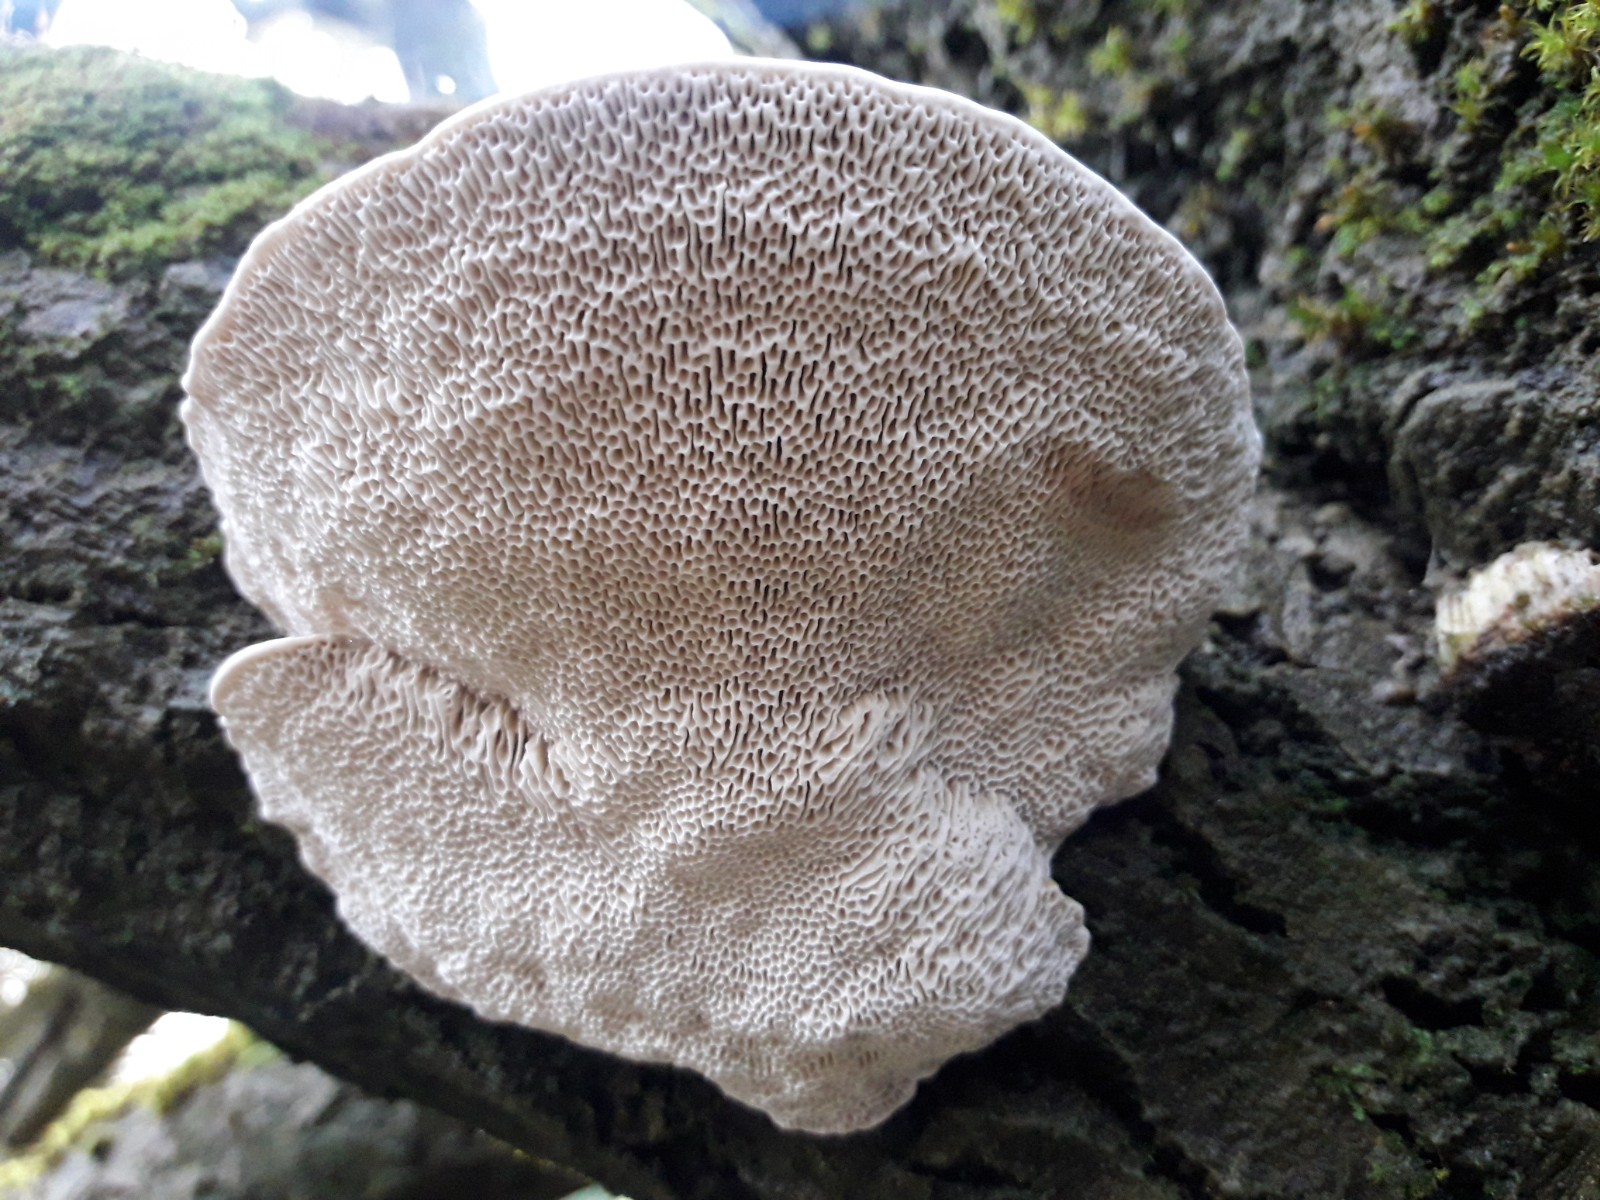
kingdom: Fungi
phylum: Basidiomycota
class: Agaricomycetes
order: Polyporales
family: Polyporaceae
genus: Daedaleopsis
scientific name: Daedaleopsis confragosa
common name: rødmende læderporesvamp
